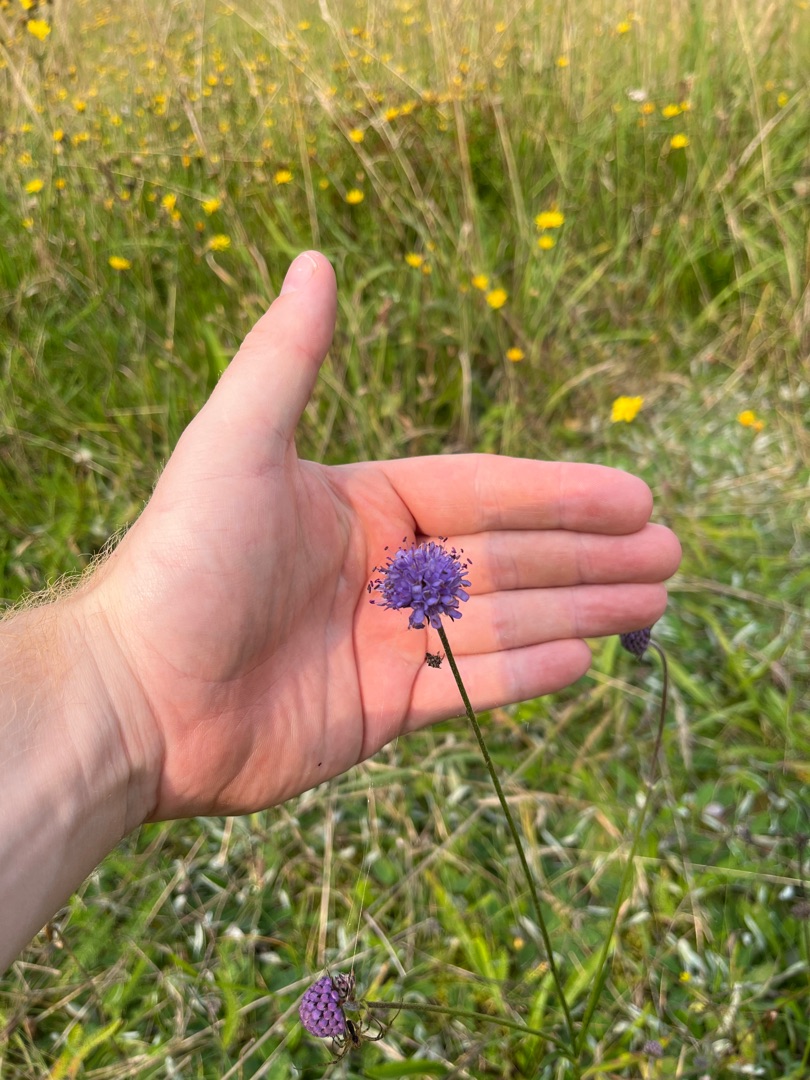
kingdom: Plantae
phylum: Tracheophyta
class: Magnoliopsida
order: Dipsacales
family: Caprifoliaceae
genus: Succisa
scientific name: Succisa pratensis
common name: Djævelsbid
